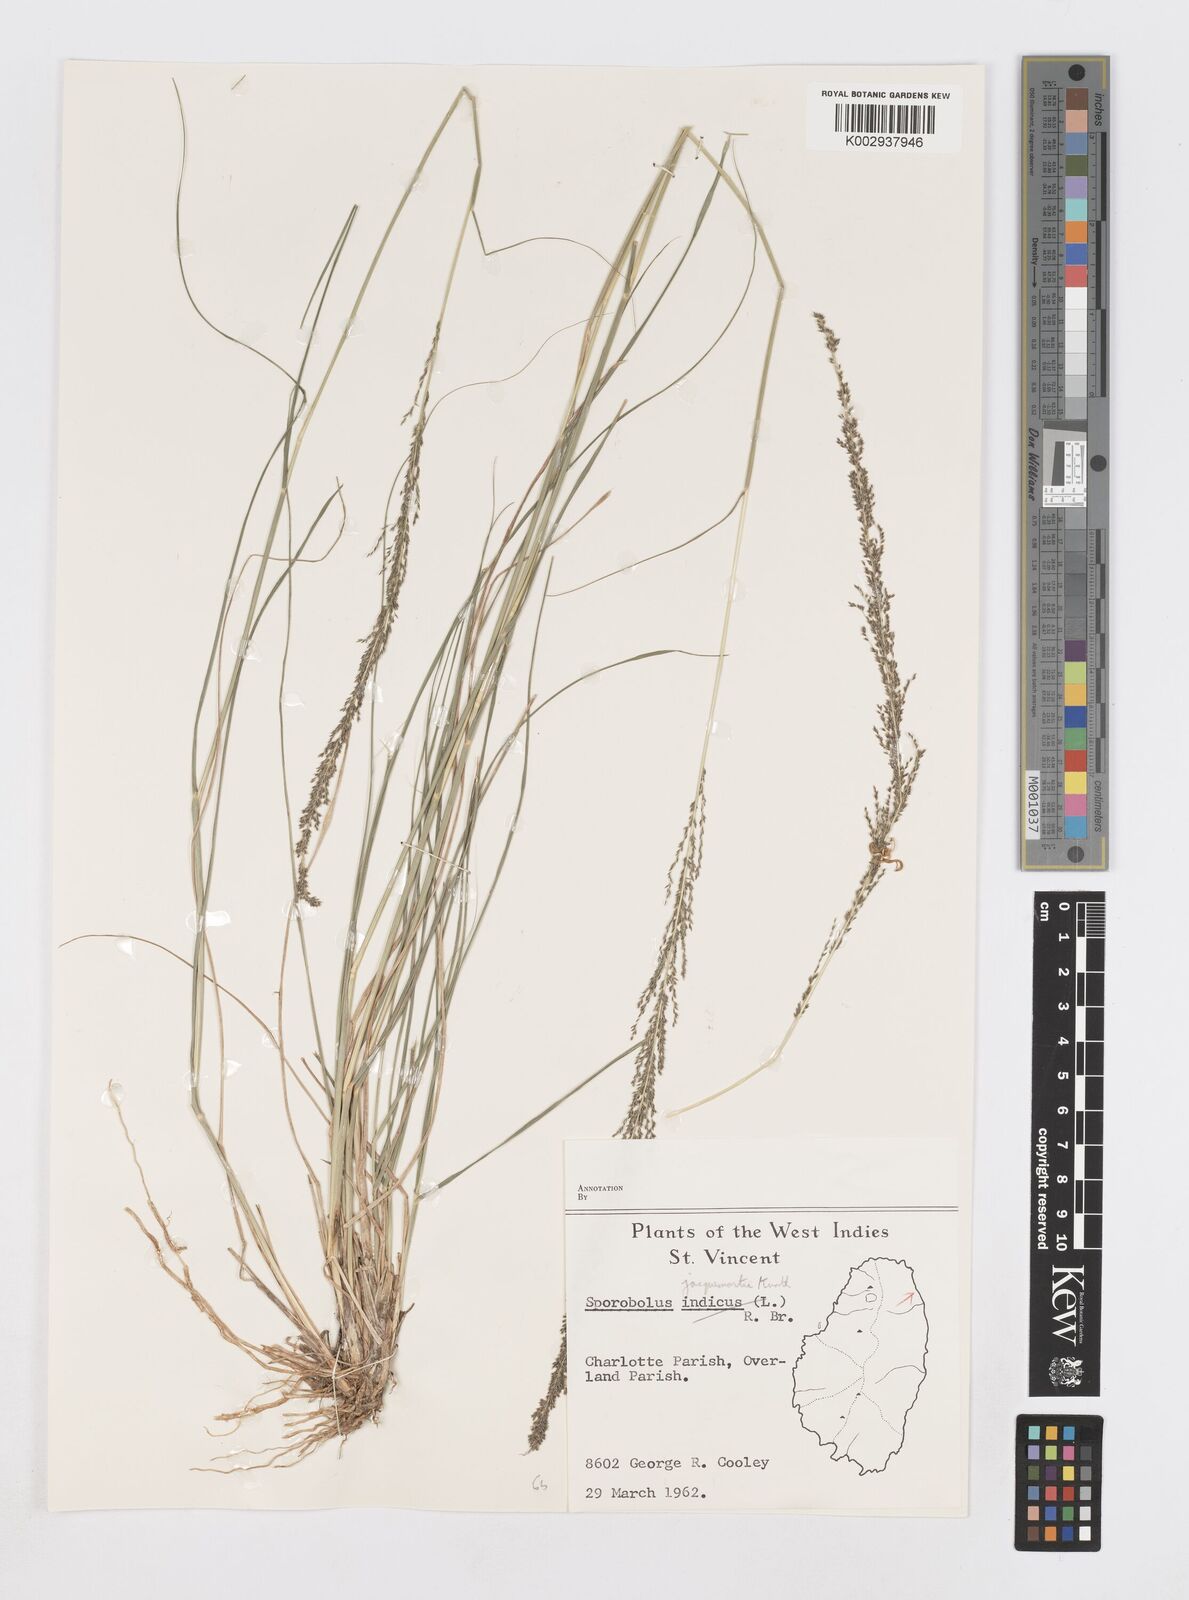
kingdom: Plantae
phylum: Tracheophyta
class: Liliopsida
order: Poales
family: Poaceae
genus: Sporobolus
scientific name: Sporobolus pyramidalis
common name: West indian dropseed
